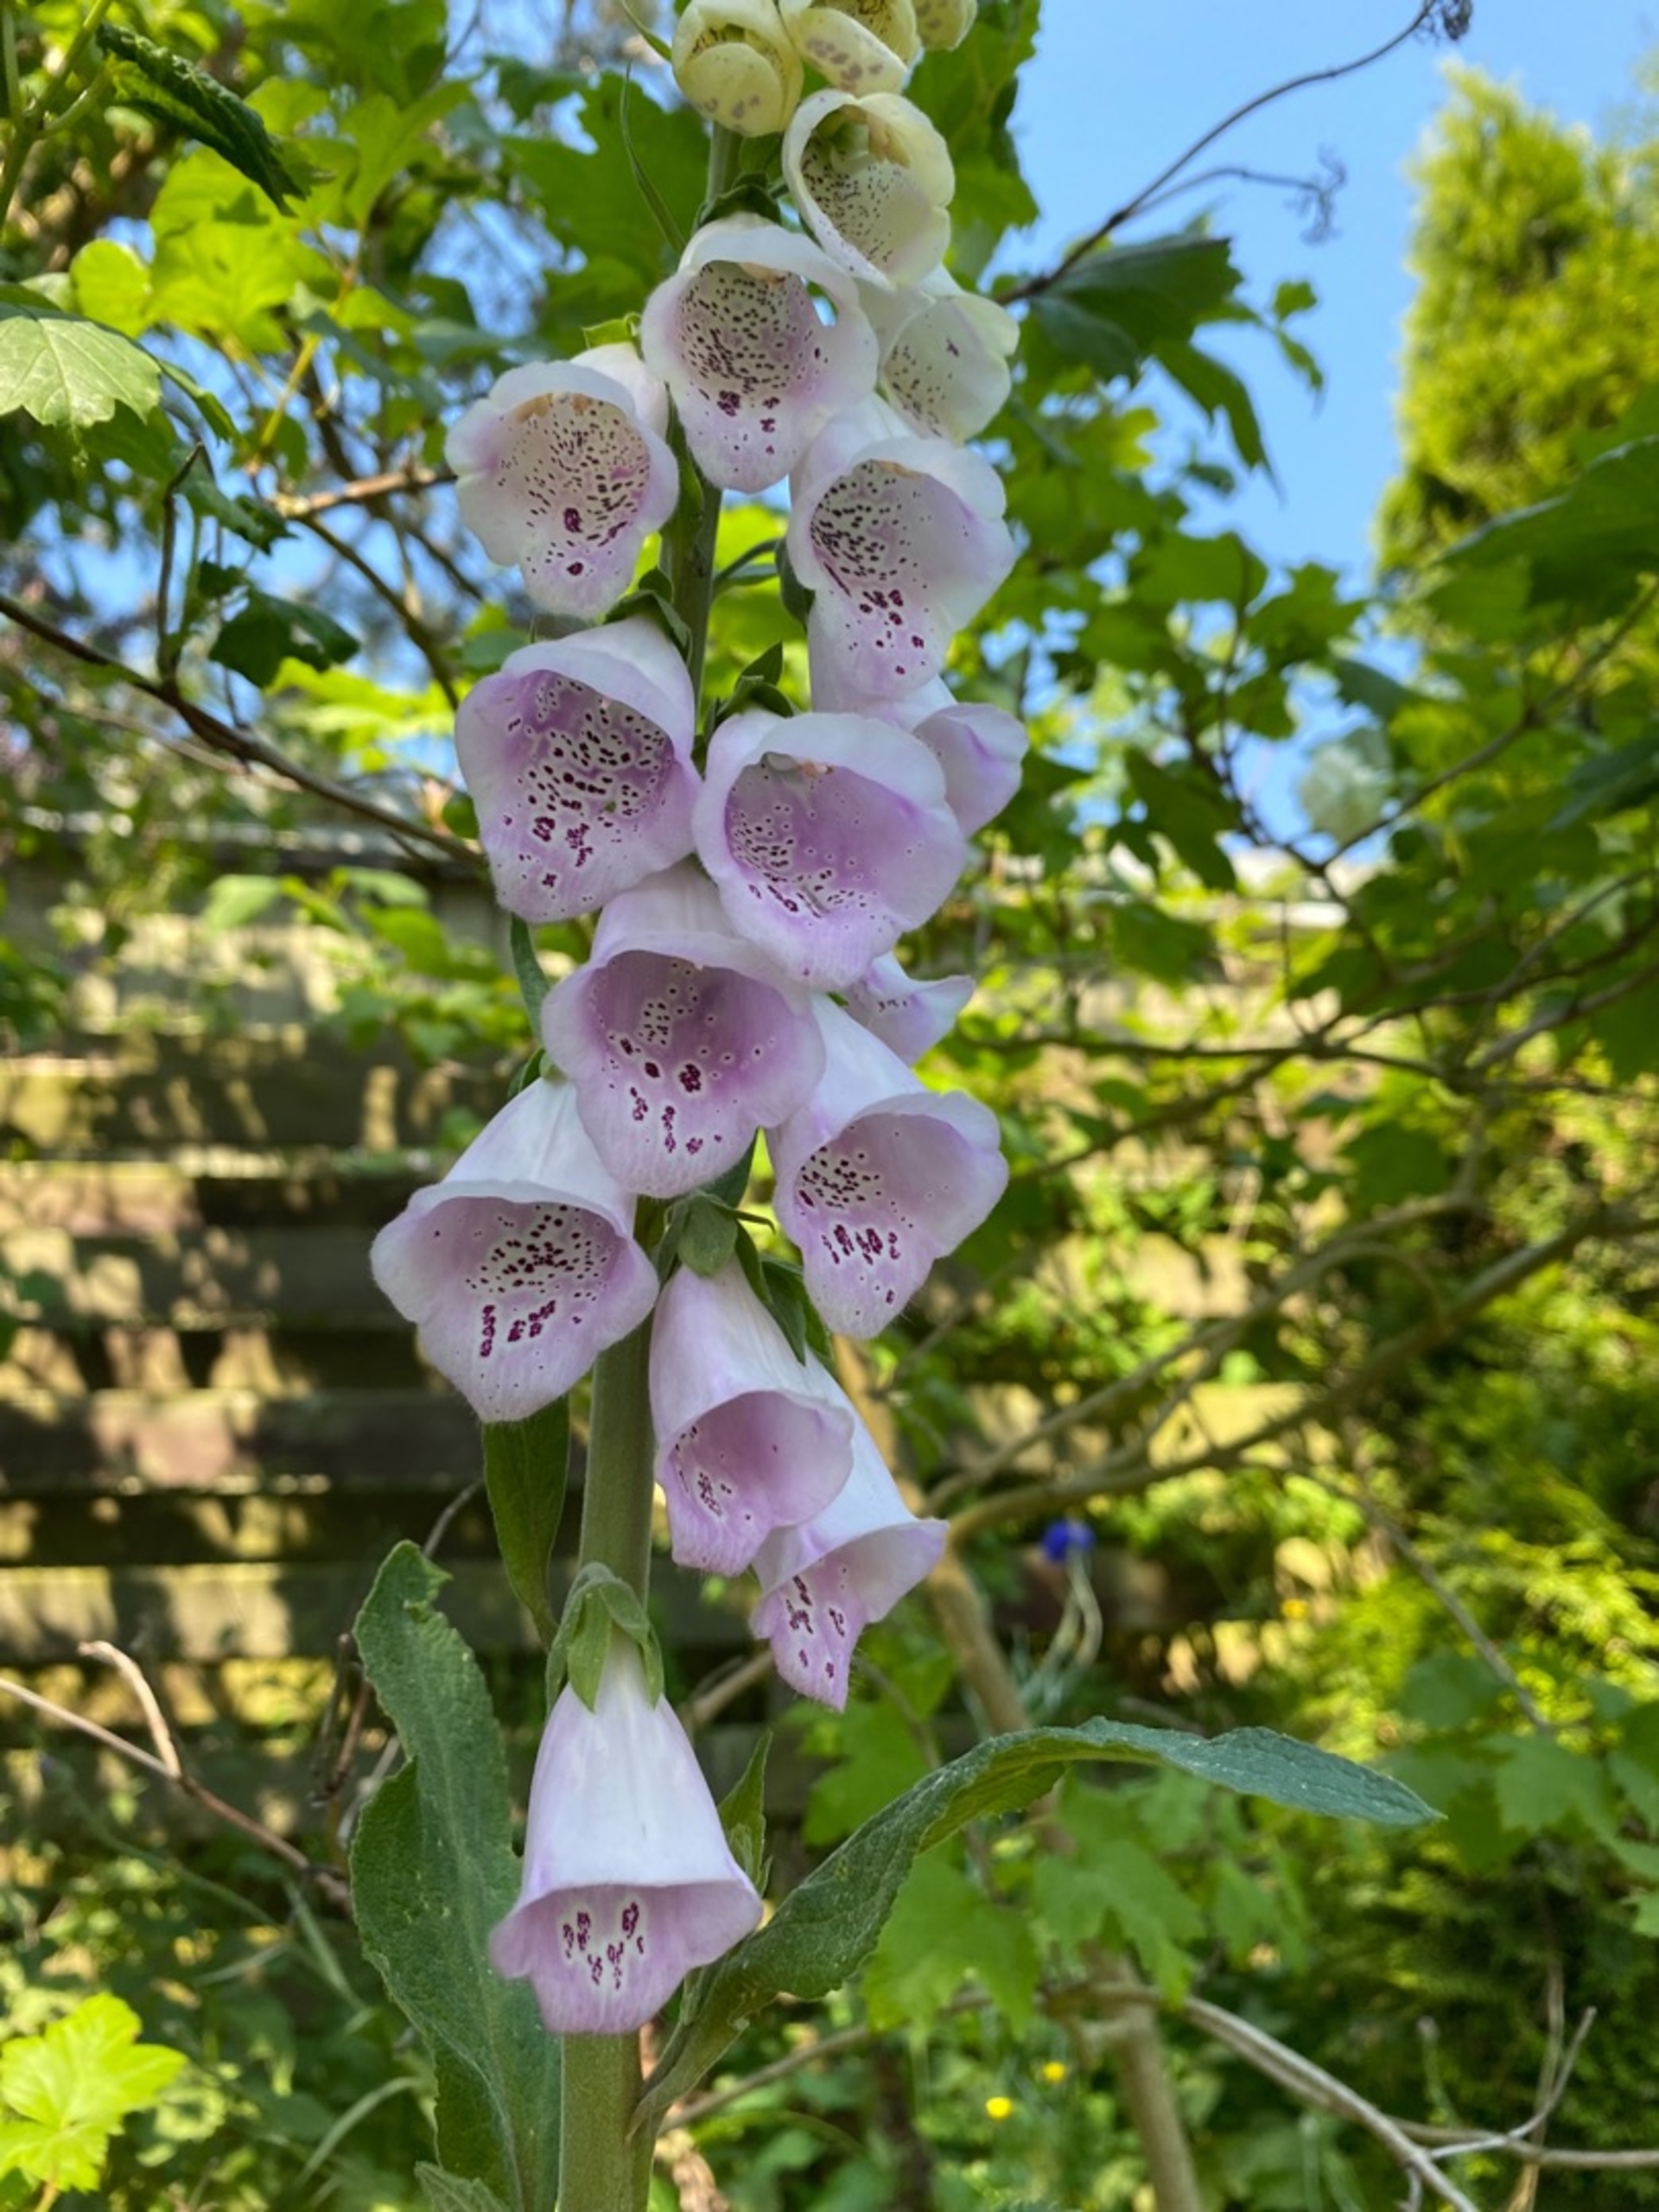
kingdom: Plantae
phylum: Tracheophyta
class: Magnoliopsida
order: Lamiales
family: Plantaginaceae
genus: Digitalis
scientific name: Digitalis purpurea
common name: Almindelig fingerbøl
